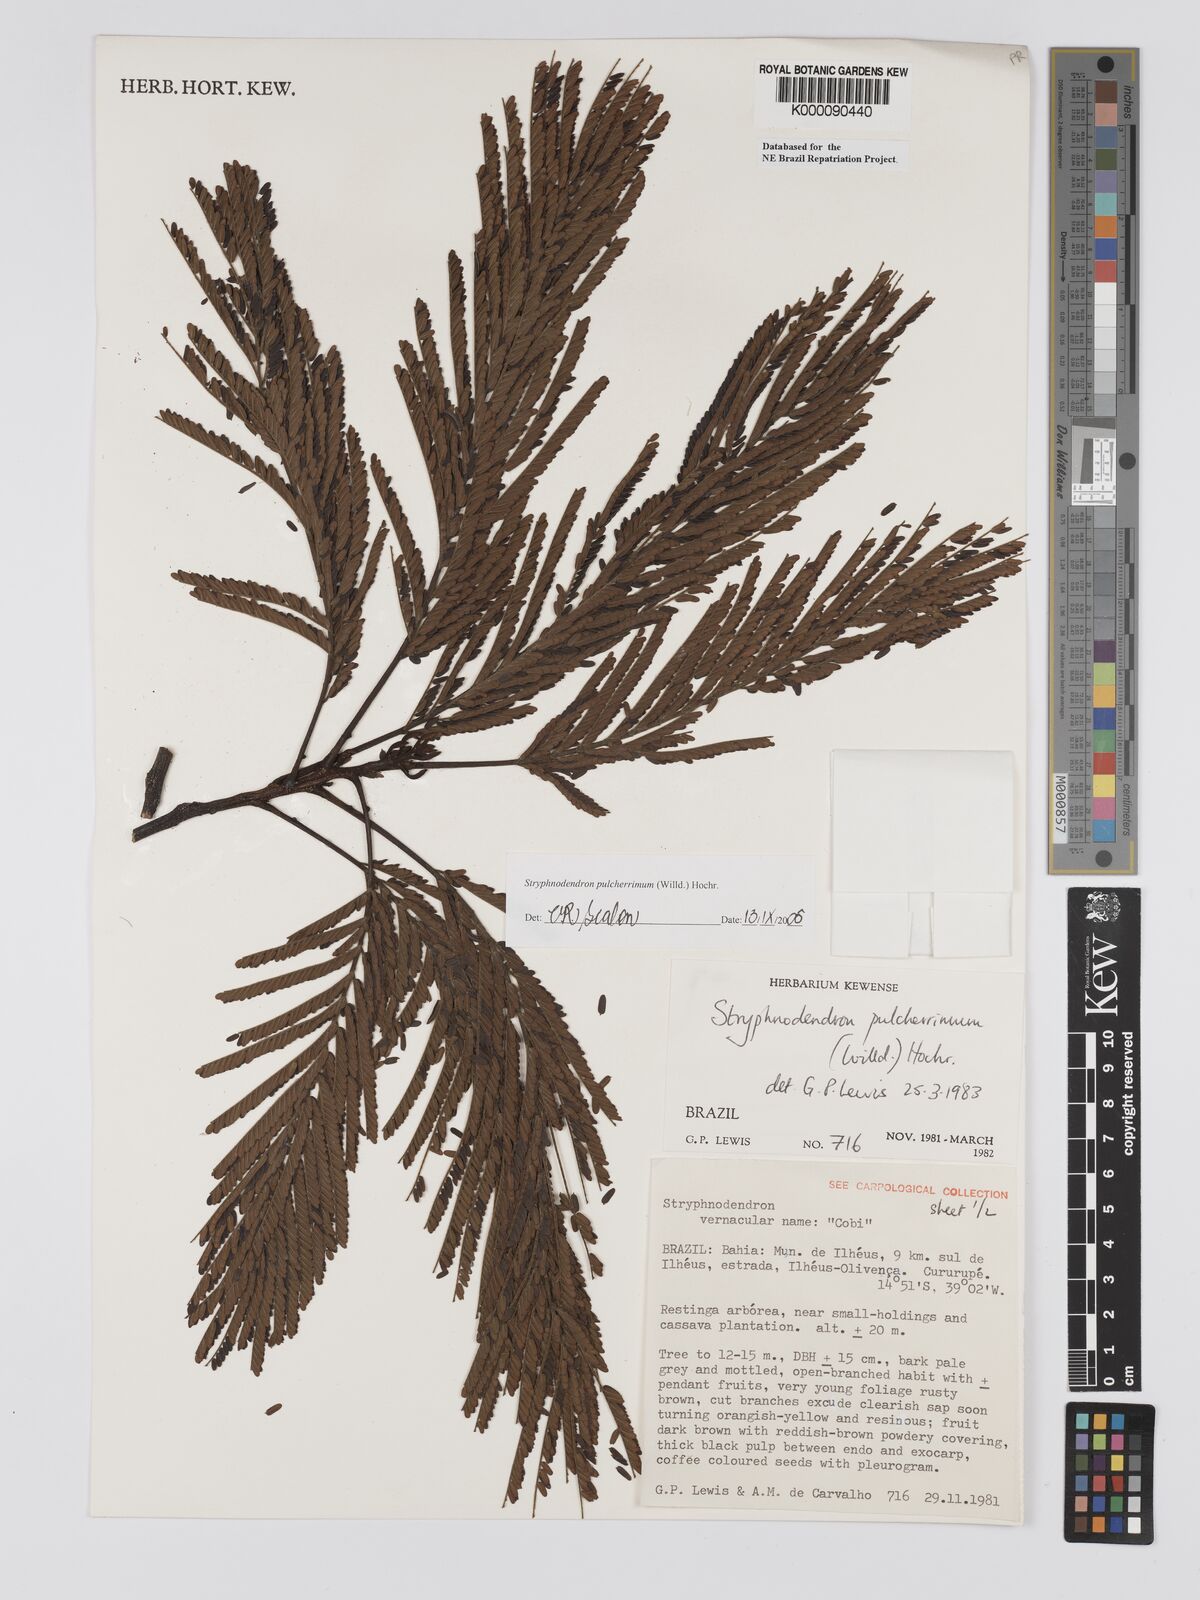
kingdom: Plantae
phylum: Tracheophyta
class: Magnoliopsida
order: Fabales
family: Fabaceae
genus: Stryphnodendron
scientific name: Stryphnodendron pulcherrimum
